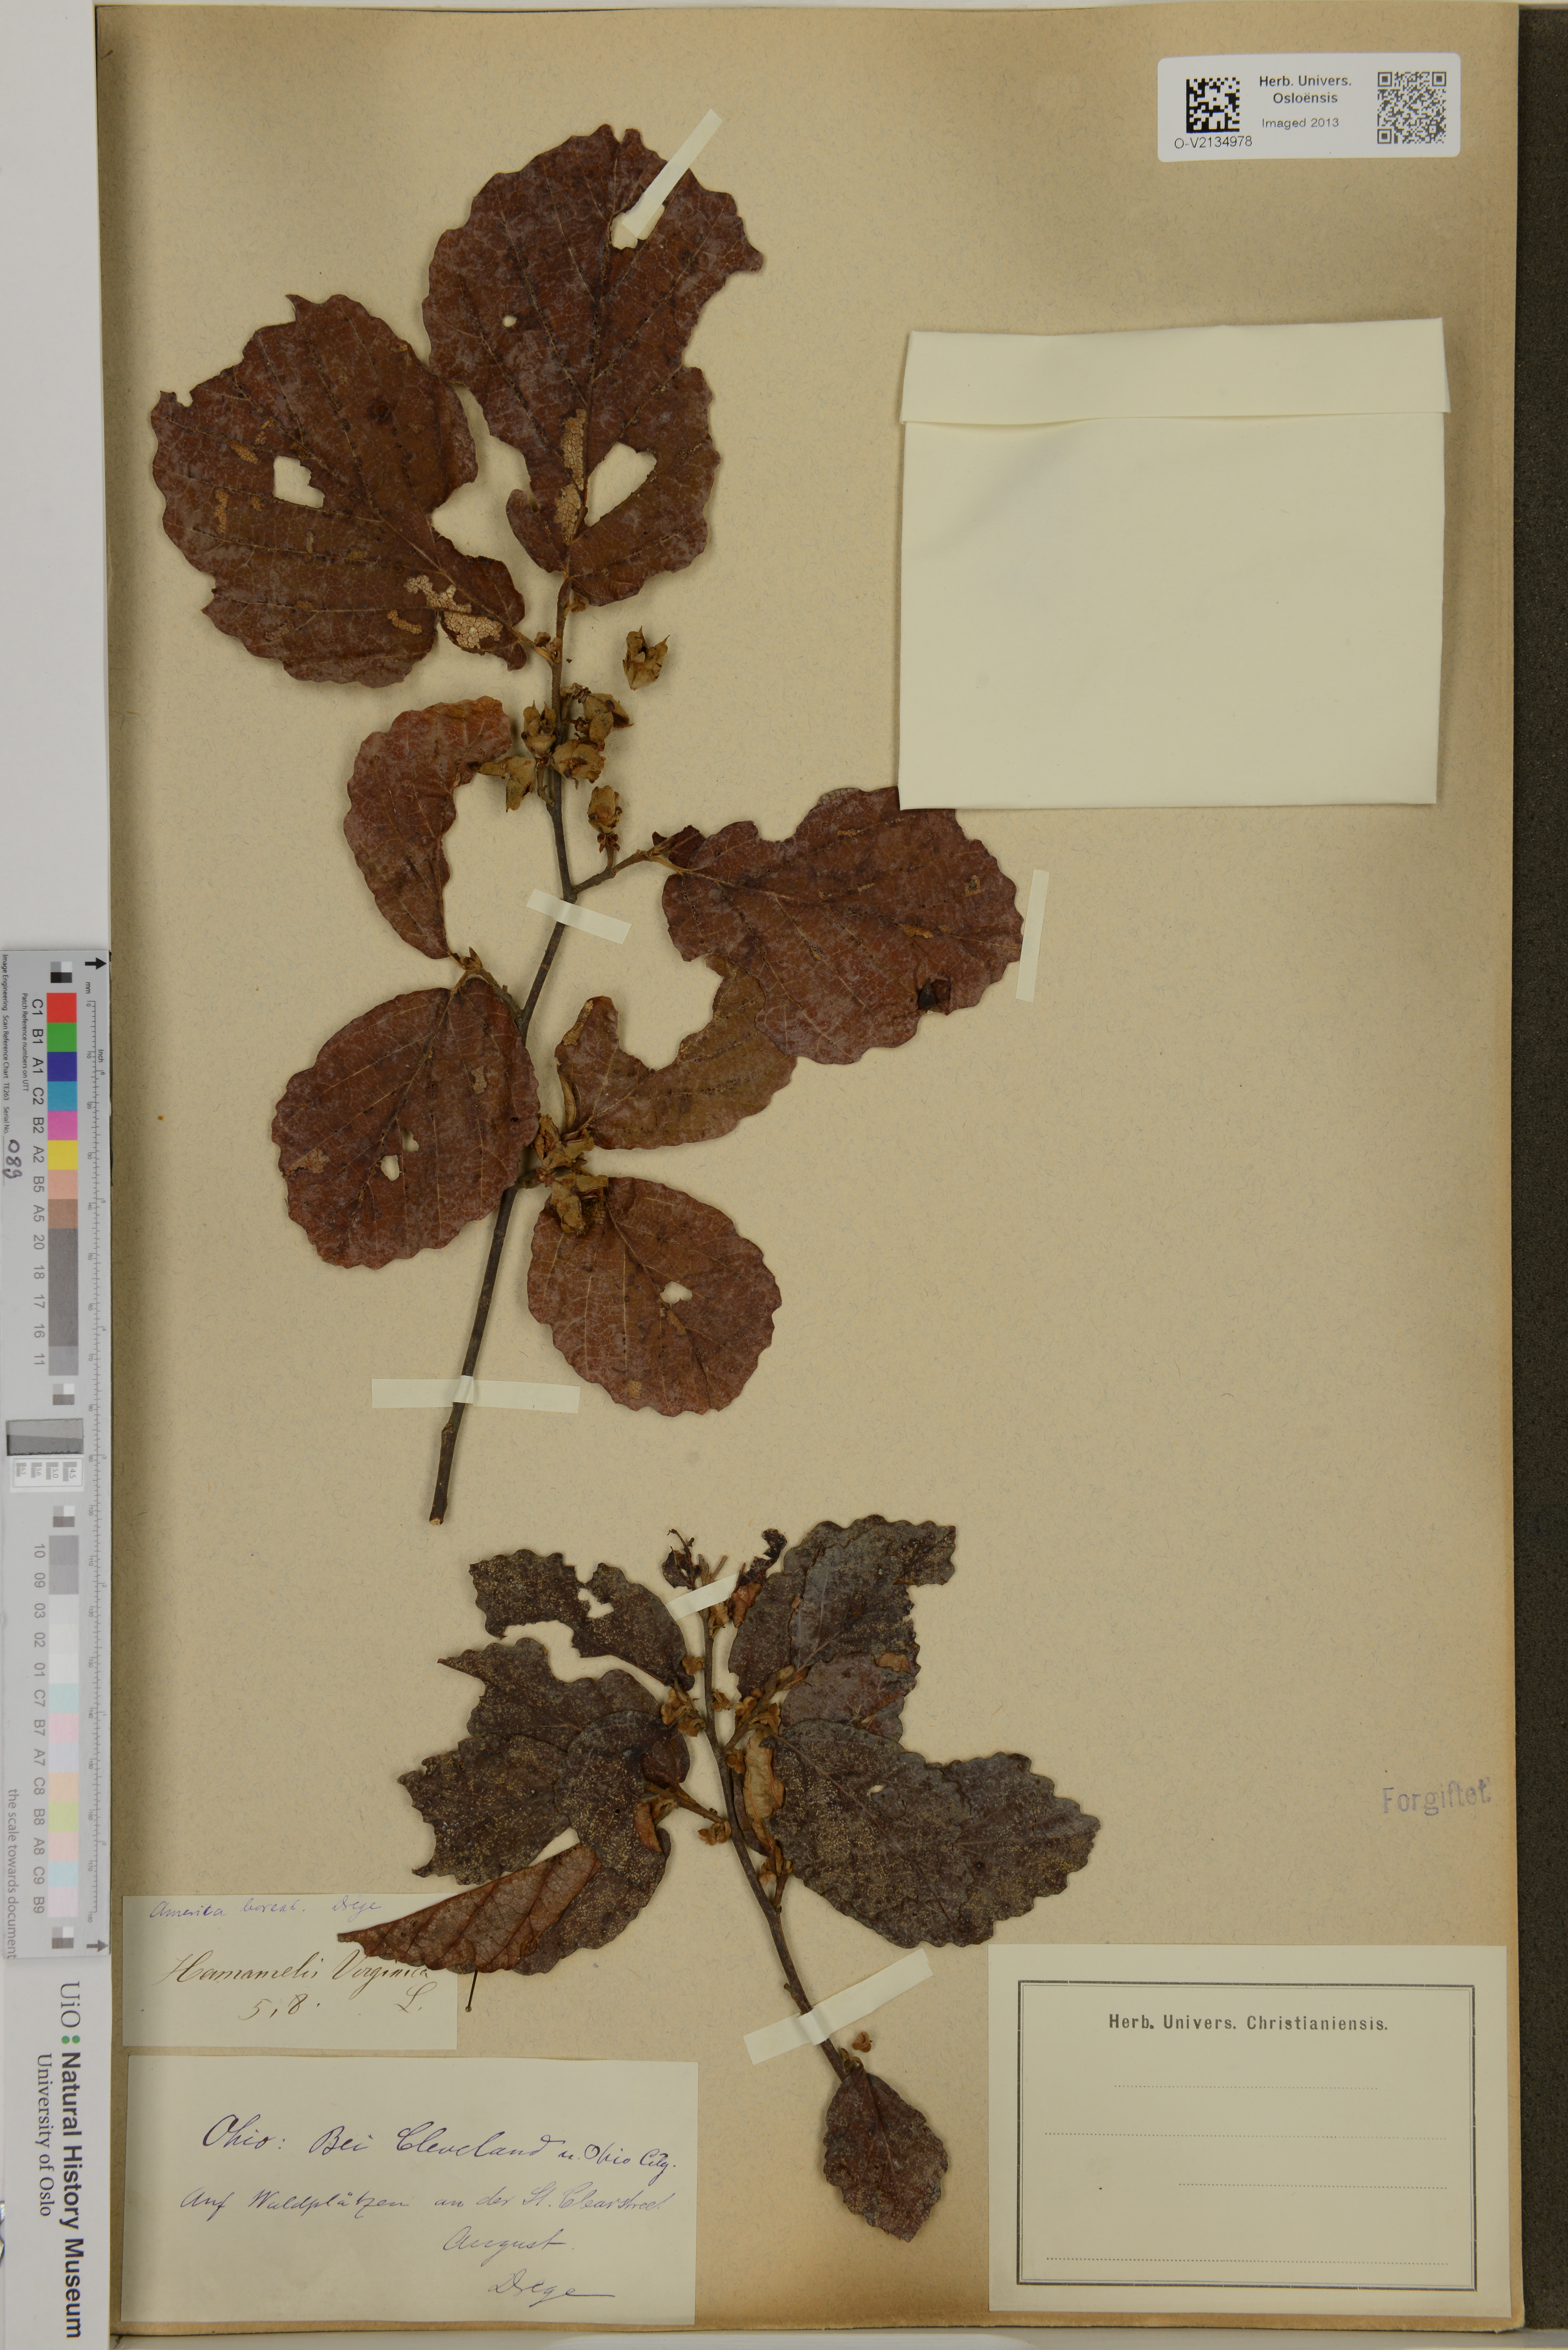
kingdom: Plantae
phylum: Tracheophyta
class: Magnoliopsida
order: Saxifragales
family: Hamamelidaceae
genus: Hamamelis
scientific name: Hamamelis virginiana
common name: Witch-hazel
